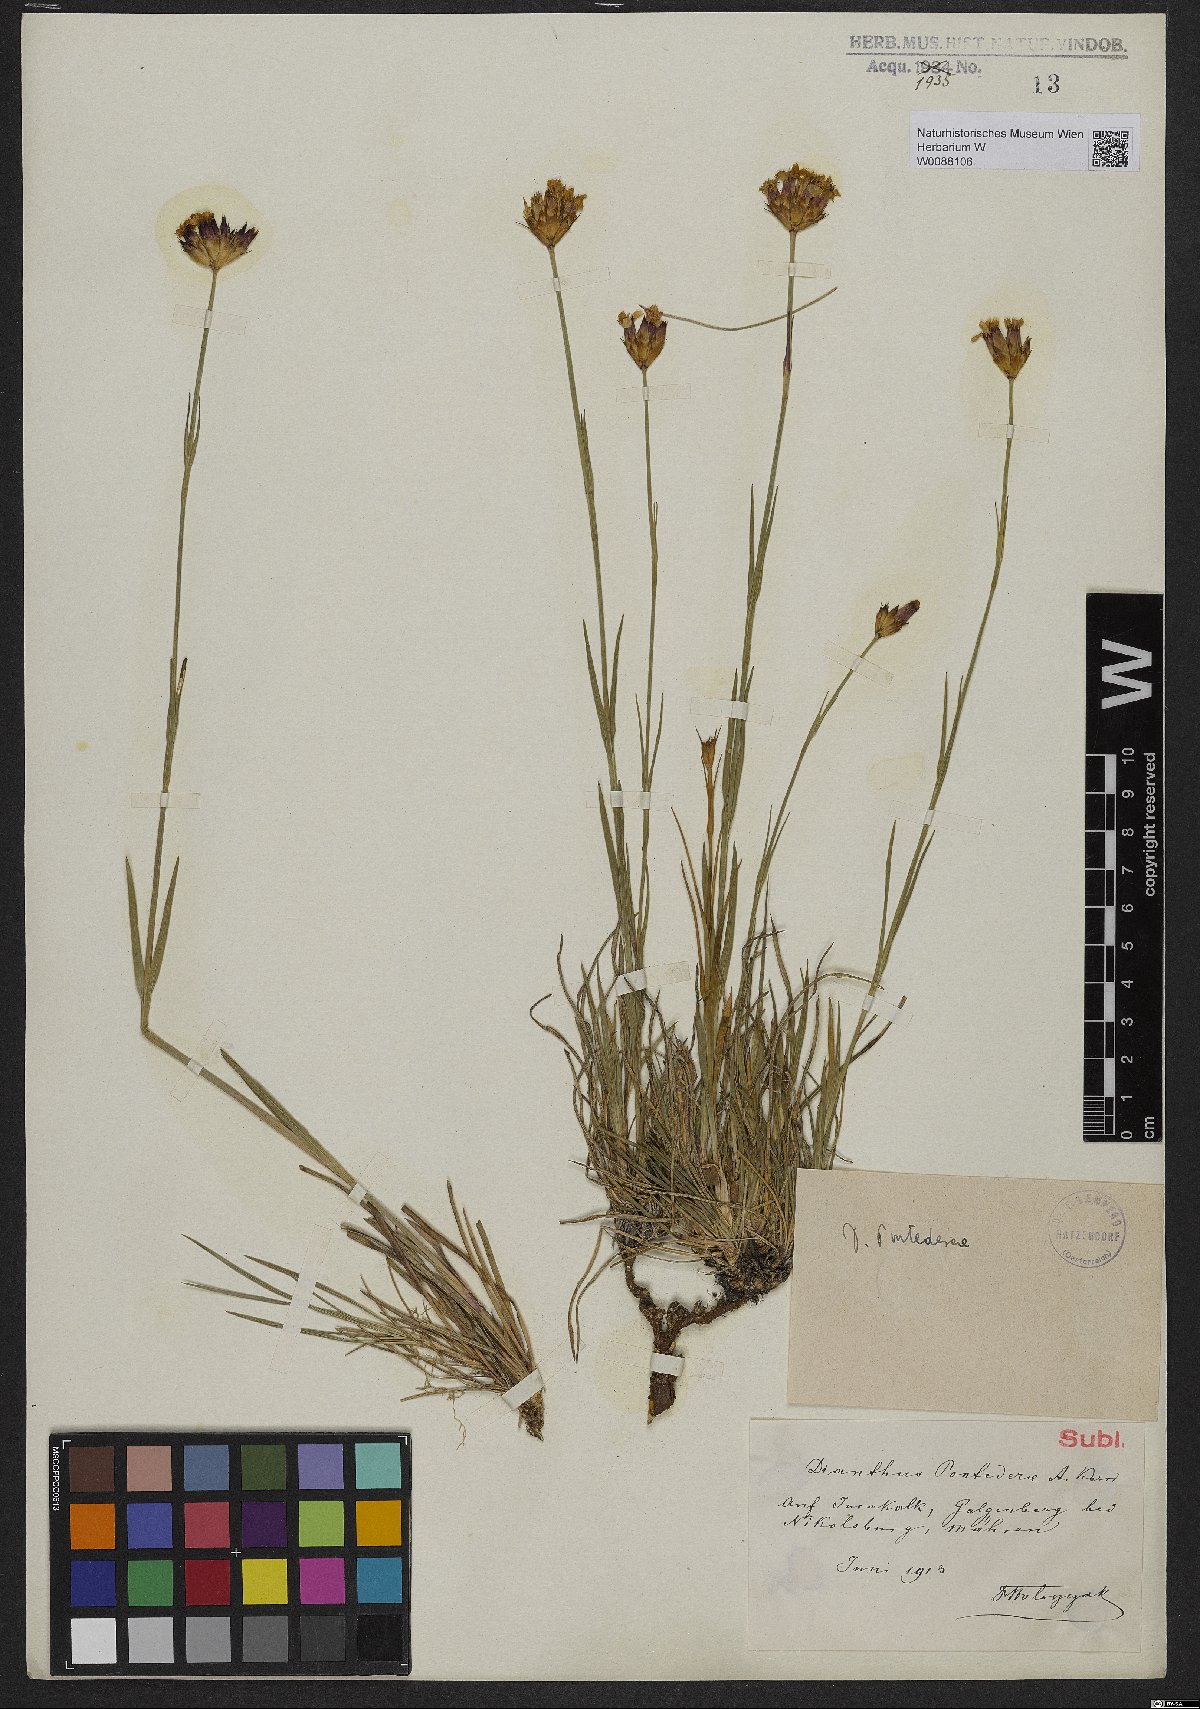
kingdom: Plantae
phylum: Tracheophyta
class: Magnoliopsida
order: Caryophyllales
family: Caryophyllaceae
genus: Dianthus
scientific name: Dianthus pontederae
